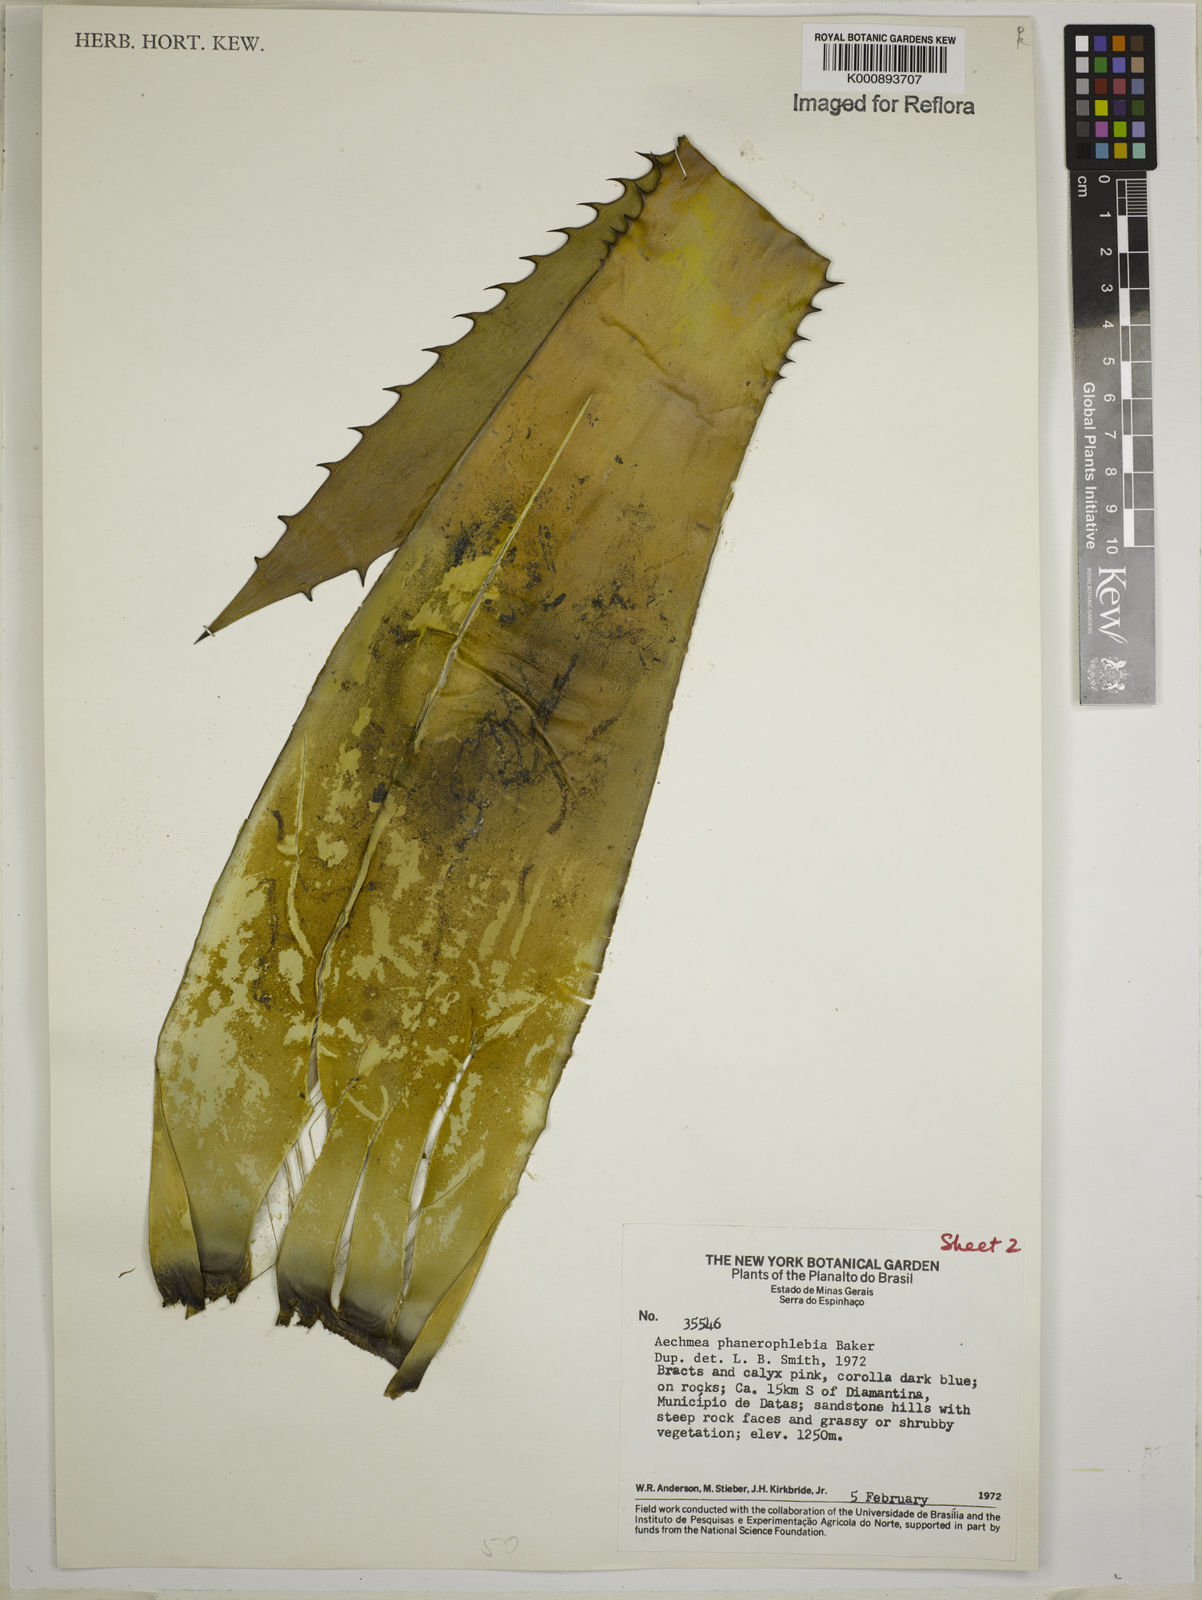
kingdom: Plantae
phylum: Tracheophyta
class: Liliopsida
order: Poales
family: Bromeliaceae
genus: Aechmea
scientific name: Aechmea phanerophlebia
